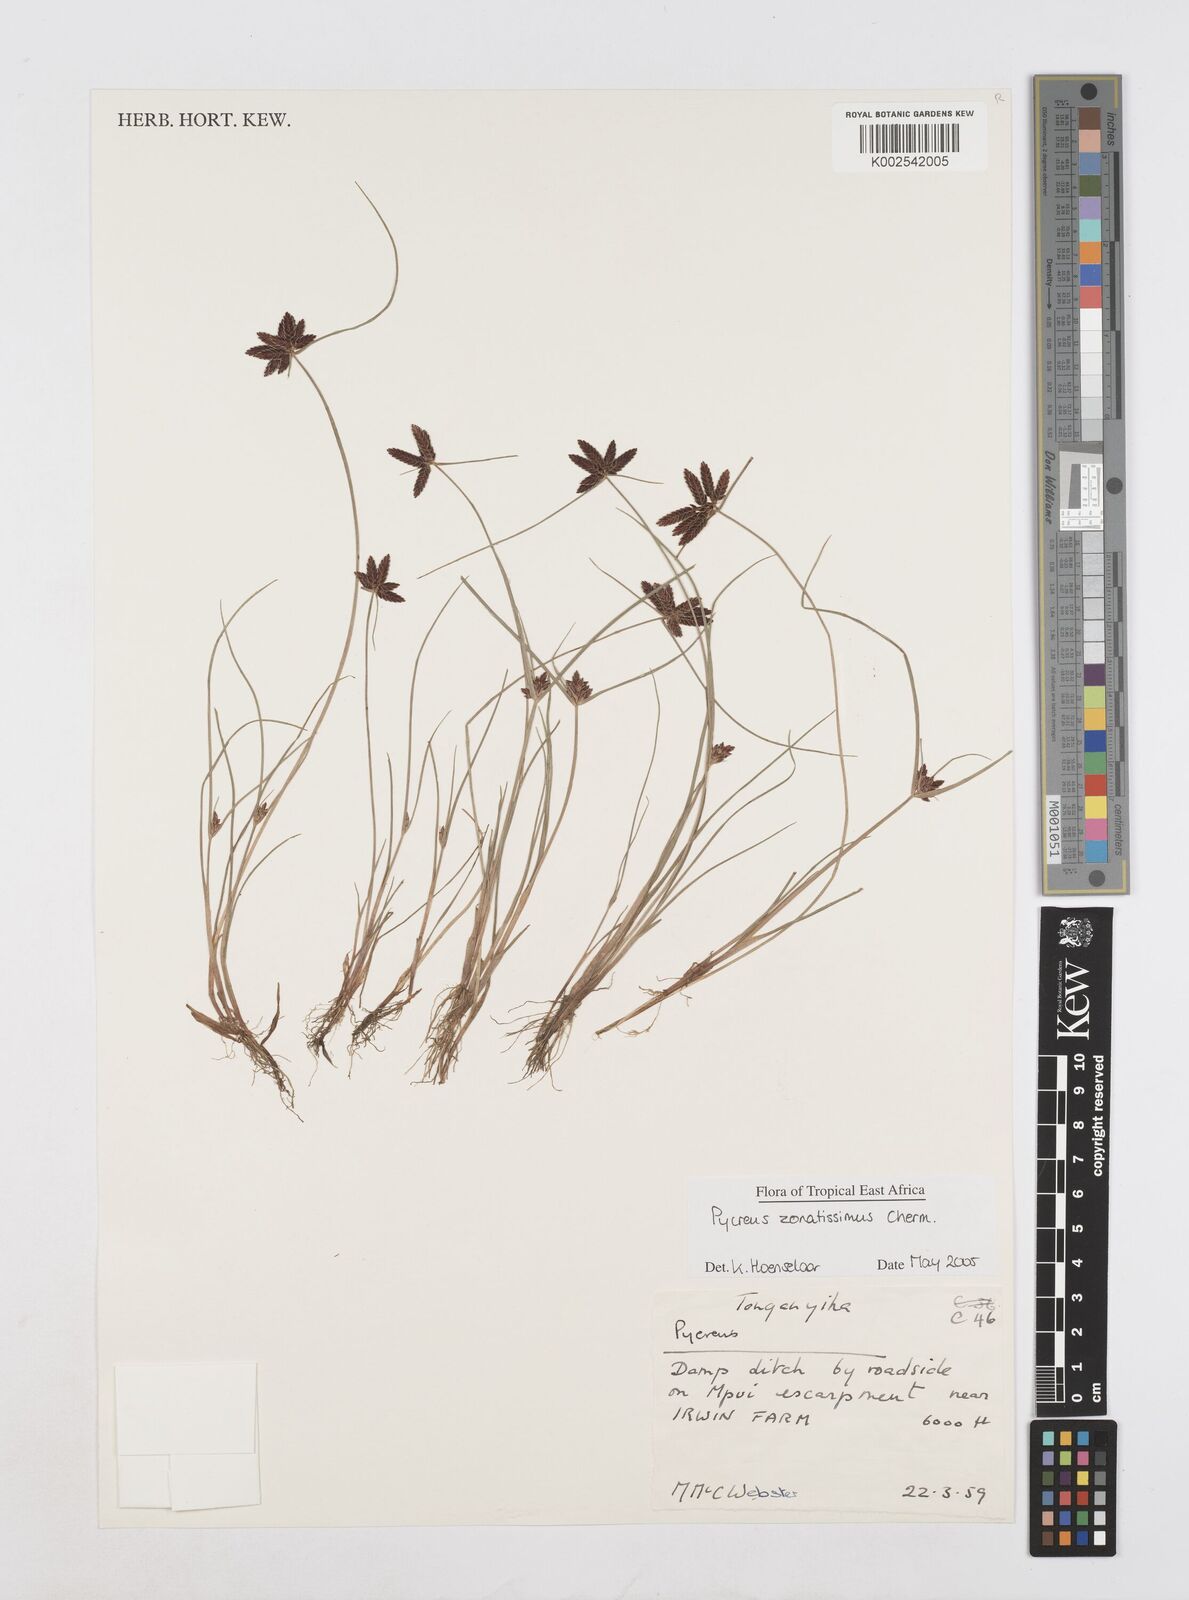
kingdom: Plantae
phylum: Tracheophyta
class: Liliopsida
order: Poales
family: Cyperaceae
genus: Cyperus
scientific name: Cyperus zonatissimus
